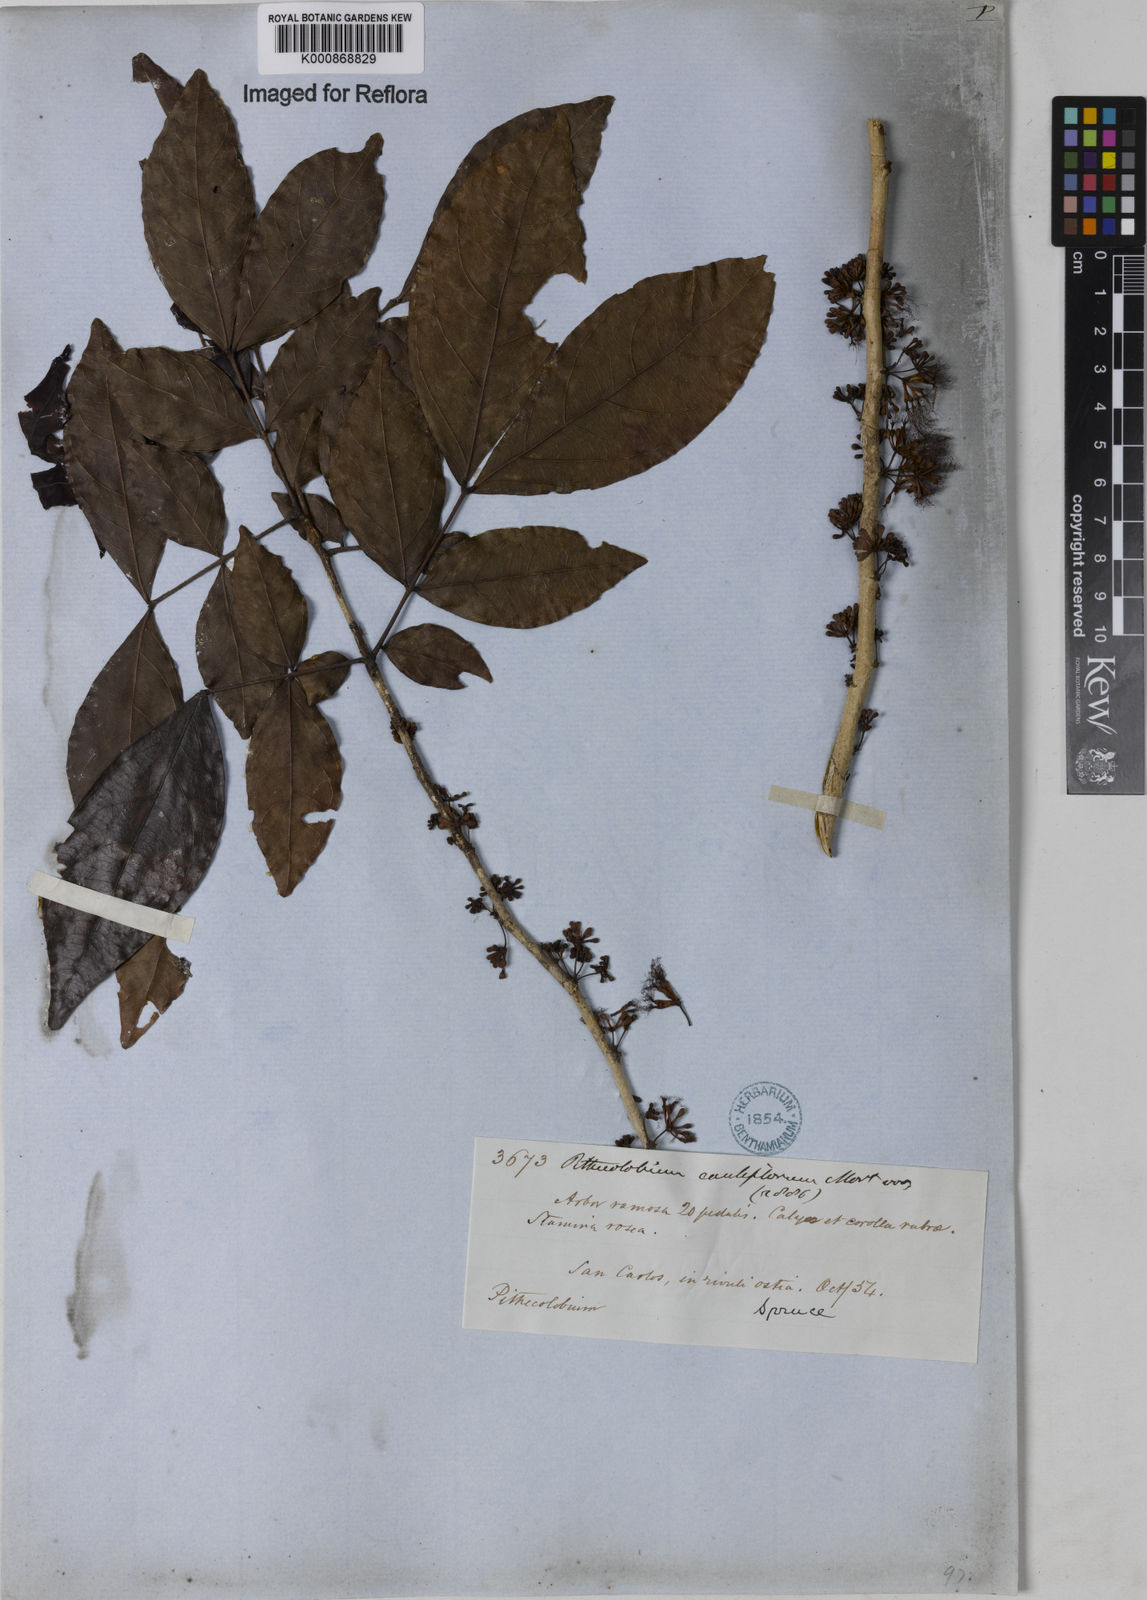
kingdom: Plantae
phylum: Tracheophyta
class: Magnoliopsida
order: Fabales
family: Fabaceae
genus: Zygia
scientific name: Zygia
